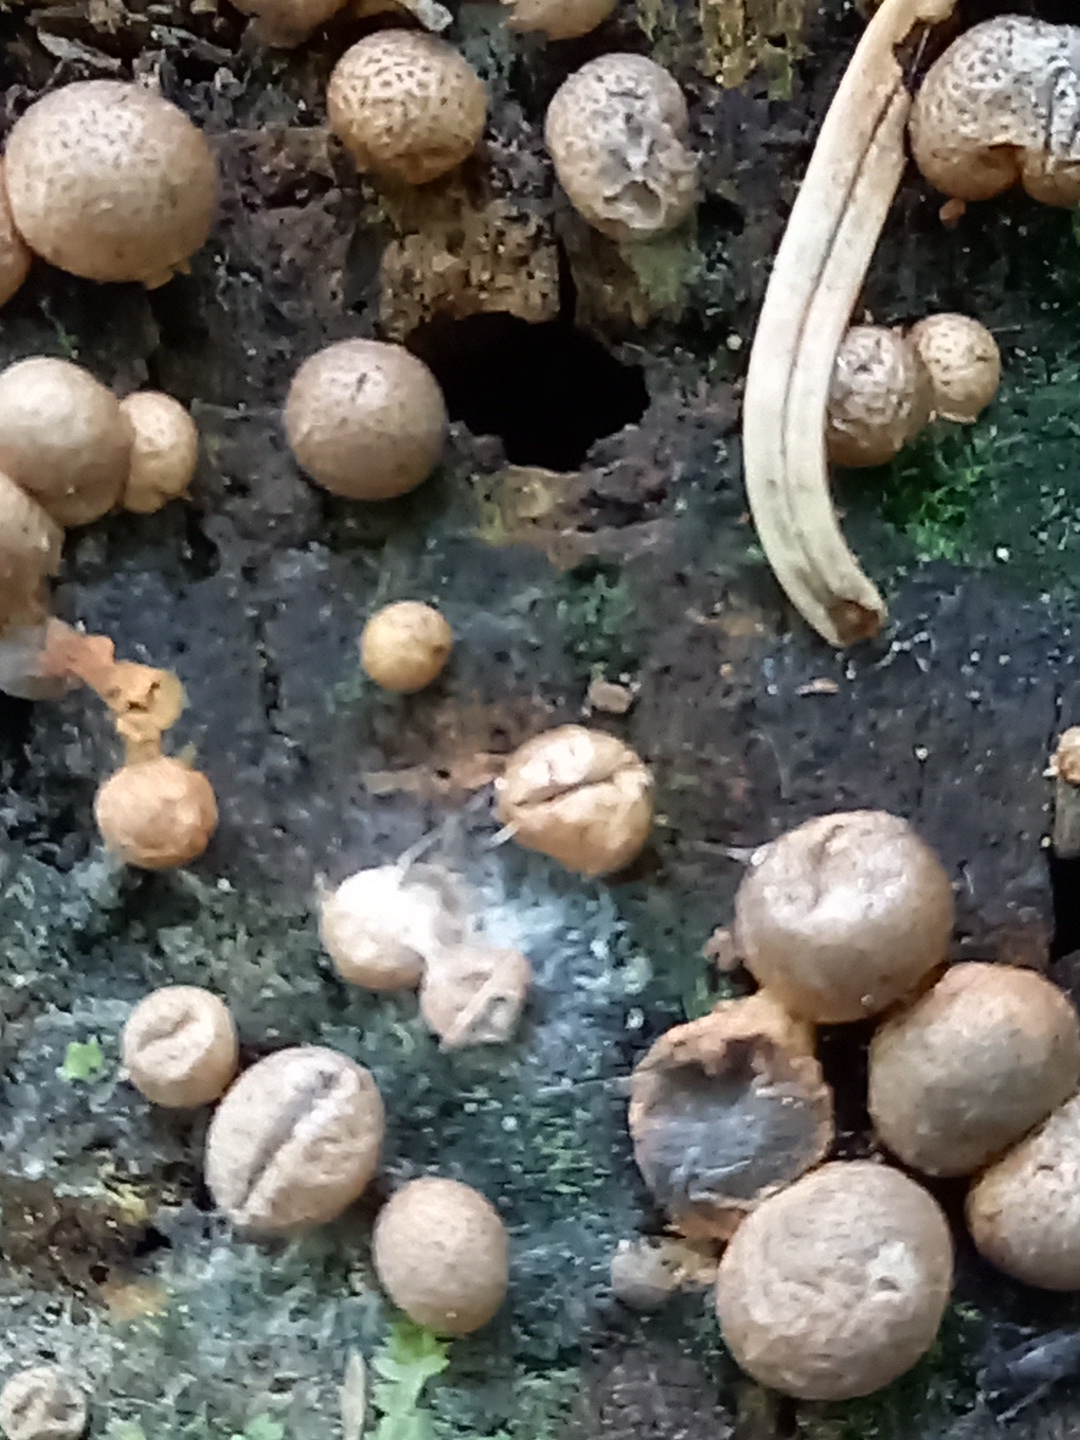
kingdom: Protozoa
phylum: Mycetozoa
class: Myxomycetes
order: Cribrariales
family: Tubiferaceae
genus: Lycogala
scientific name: Lycogala epidendrum
